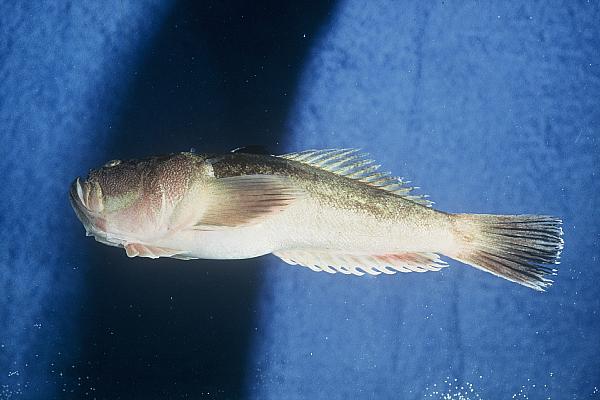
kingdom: Animalia
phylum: Chordata
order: Perciformes
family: Uranoscopidae
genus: Uranoscopus
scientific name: Uranoscopus scaber
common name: Stargazer
